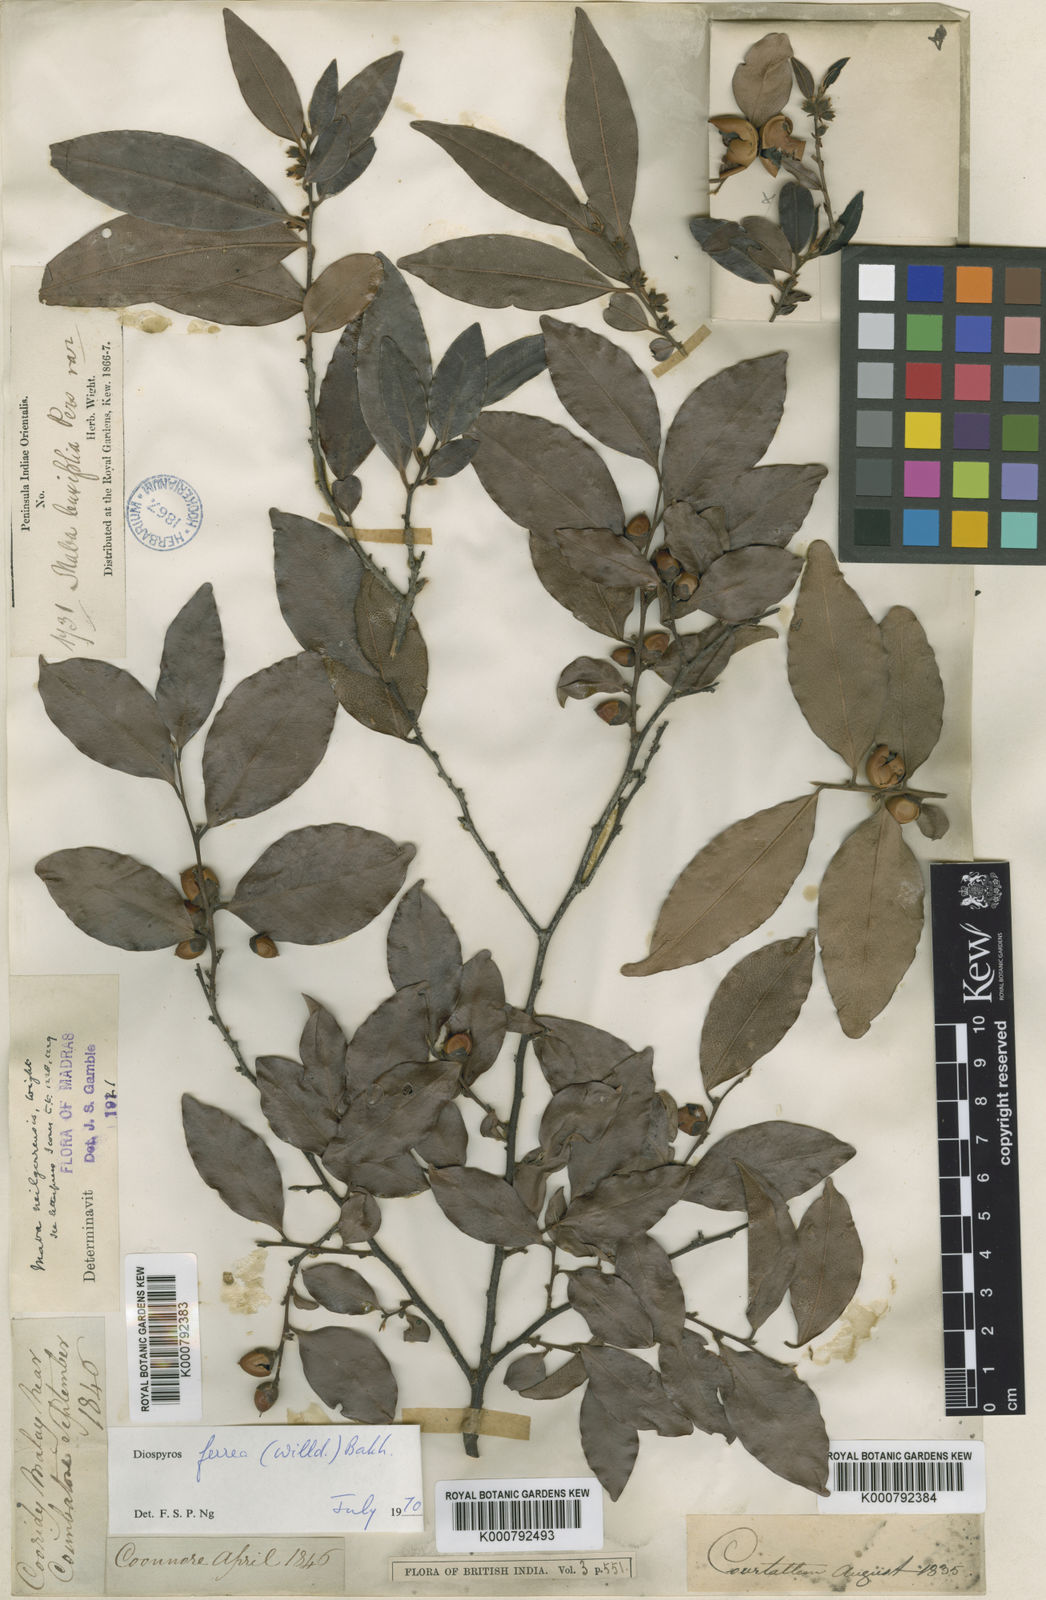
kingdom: Plantae
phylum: Tracheophyta
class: Magnoliopsida
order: Ericales
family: Ebenaceae
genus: Diospyros
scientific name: Diospyros neilgerrensis
